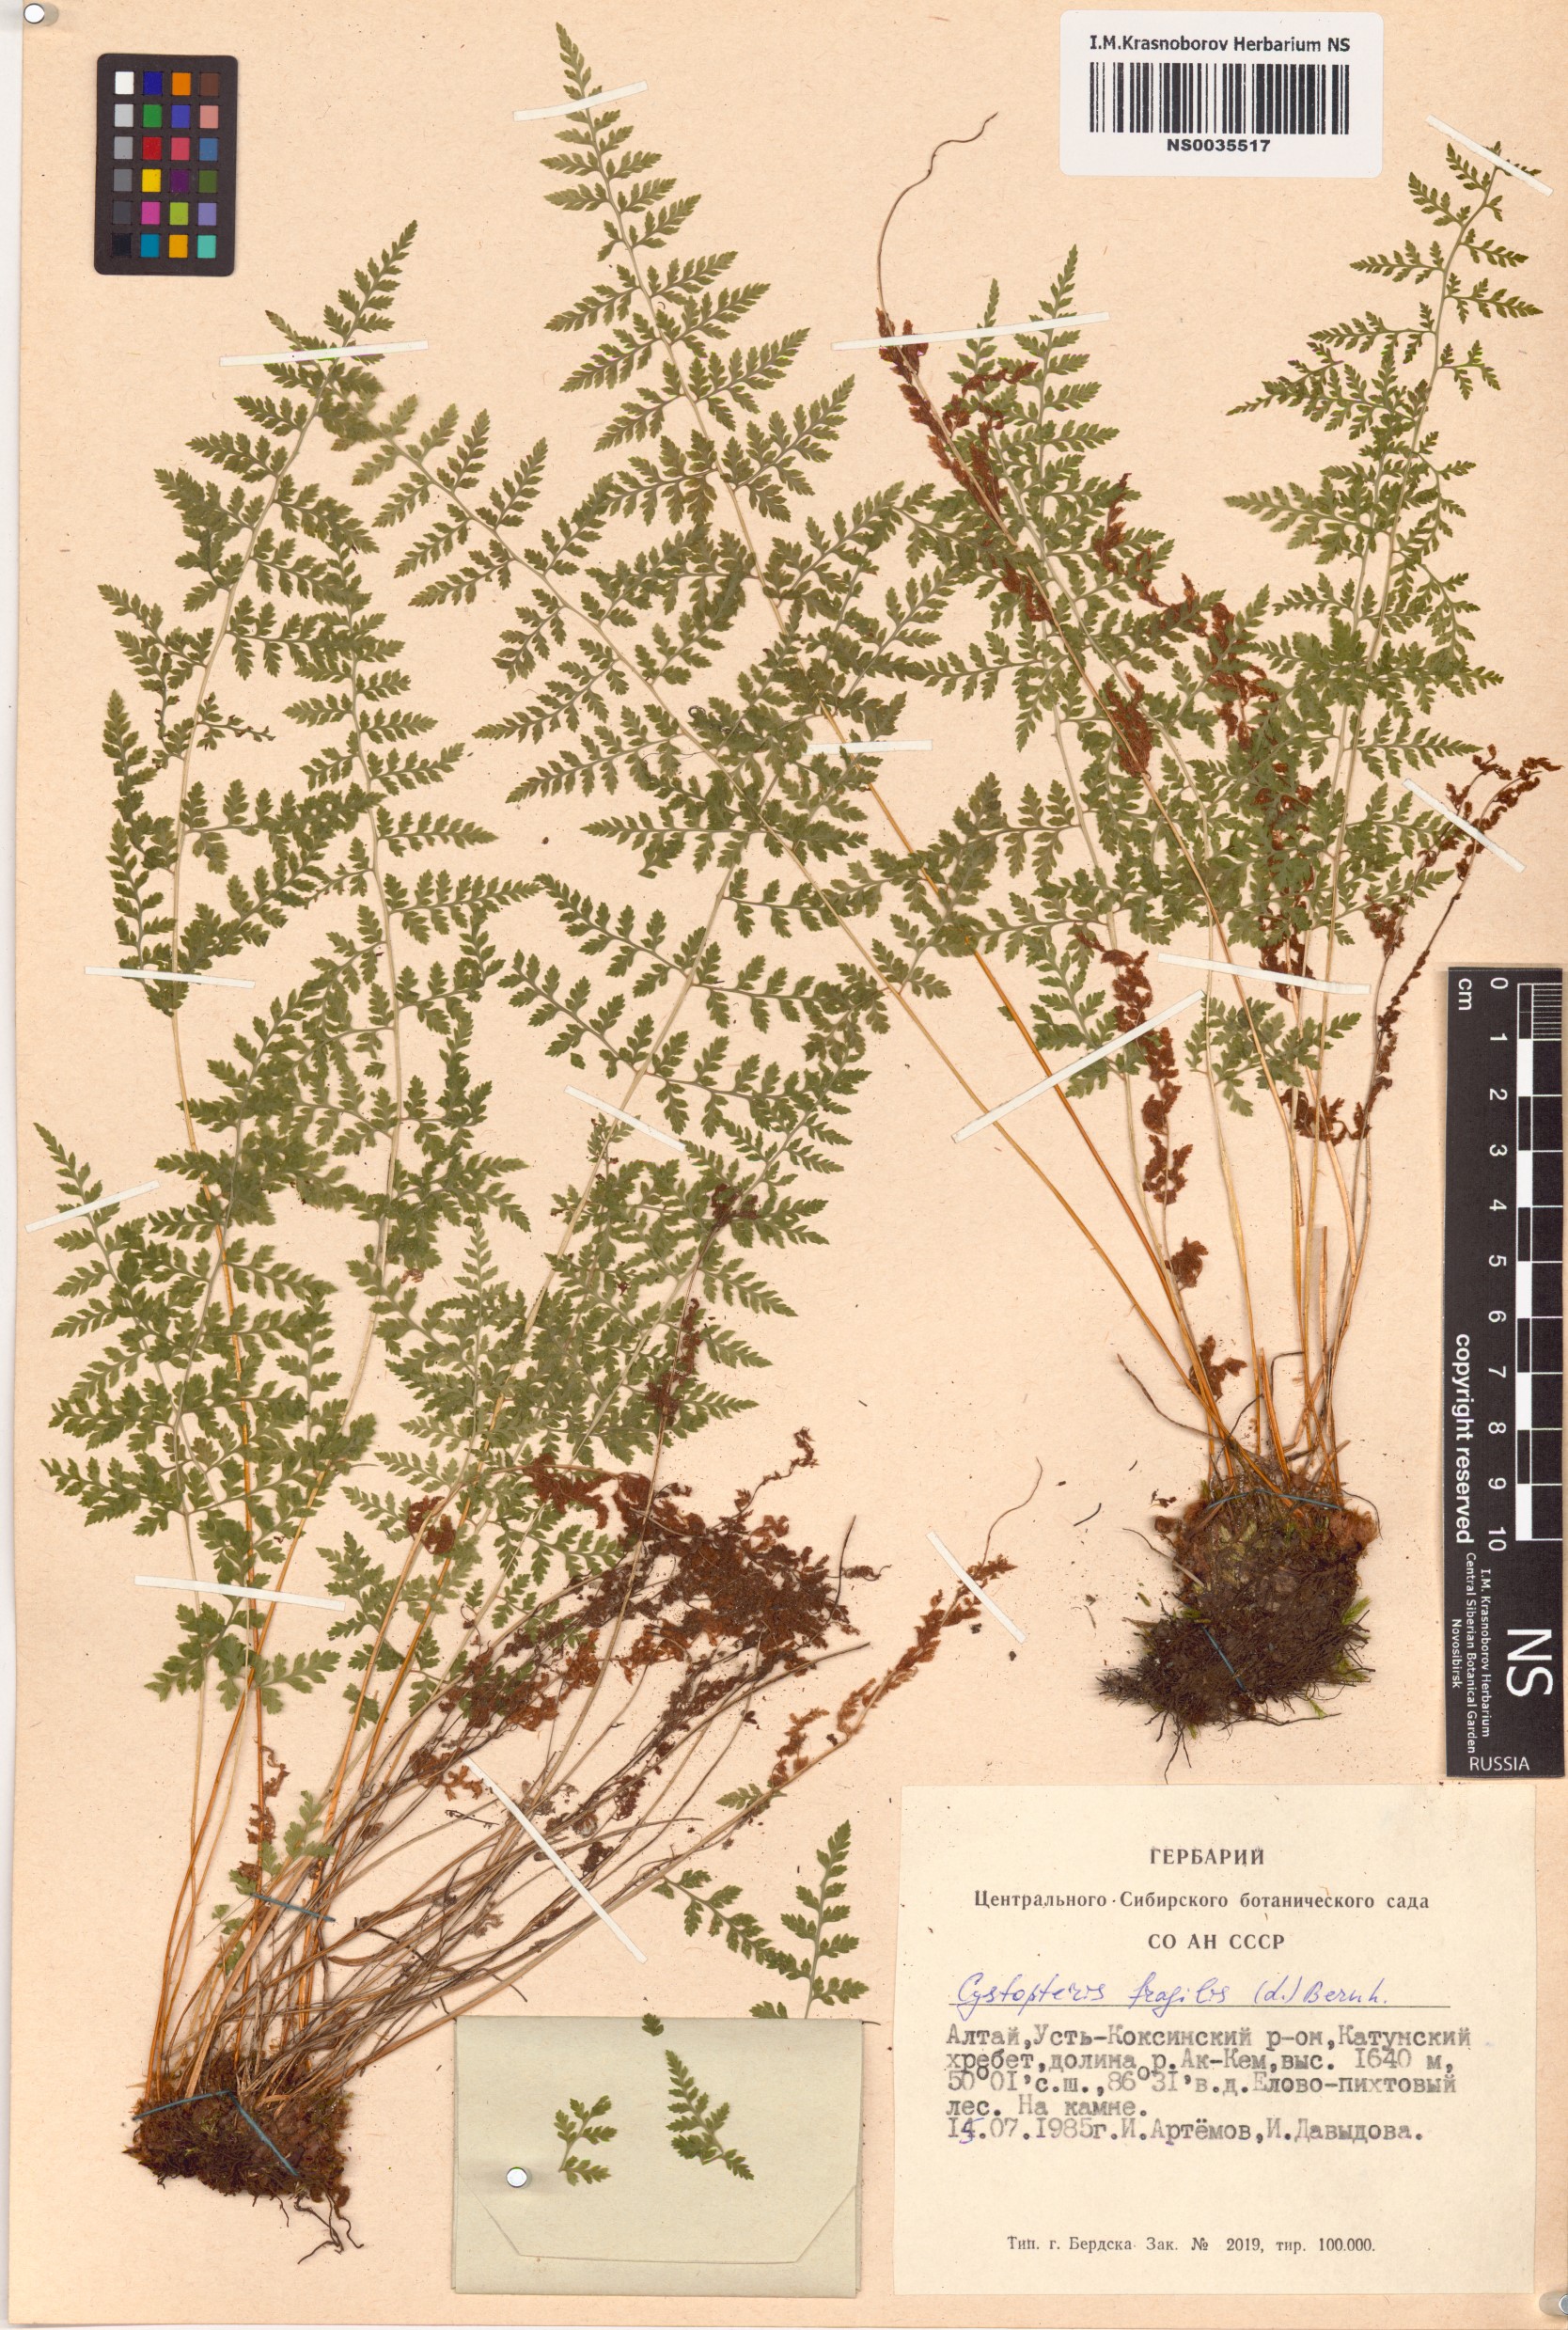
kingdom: Plantae
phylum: Tracheophyta
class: Polypodiopsida
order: Polypodiales
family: Cystopteridaceae
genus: Cystopteris
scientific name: Cystopteris fragilis
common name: Brittle bladder fern
